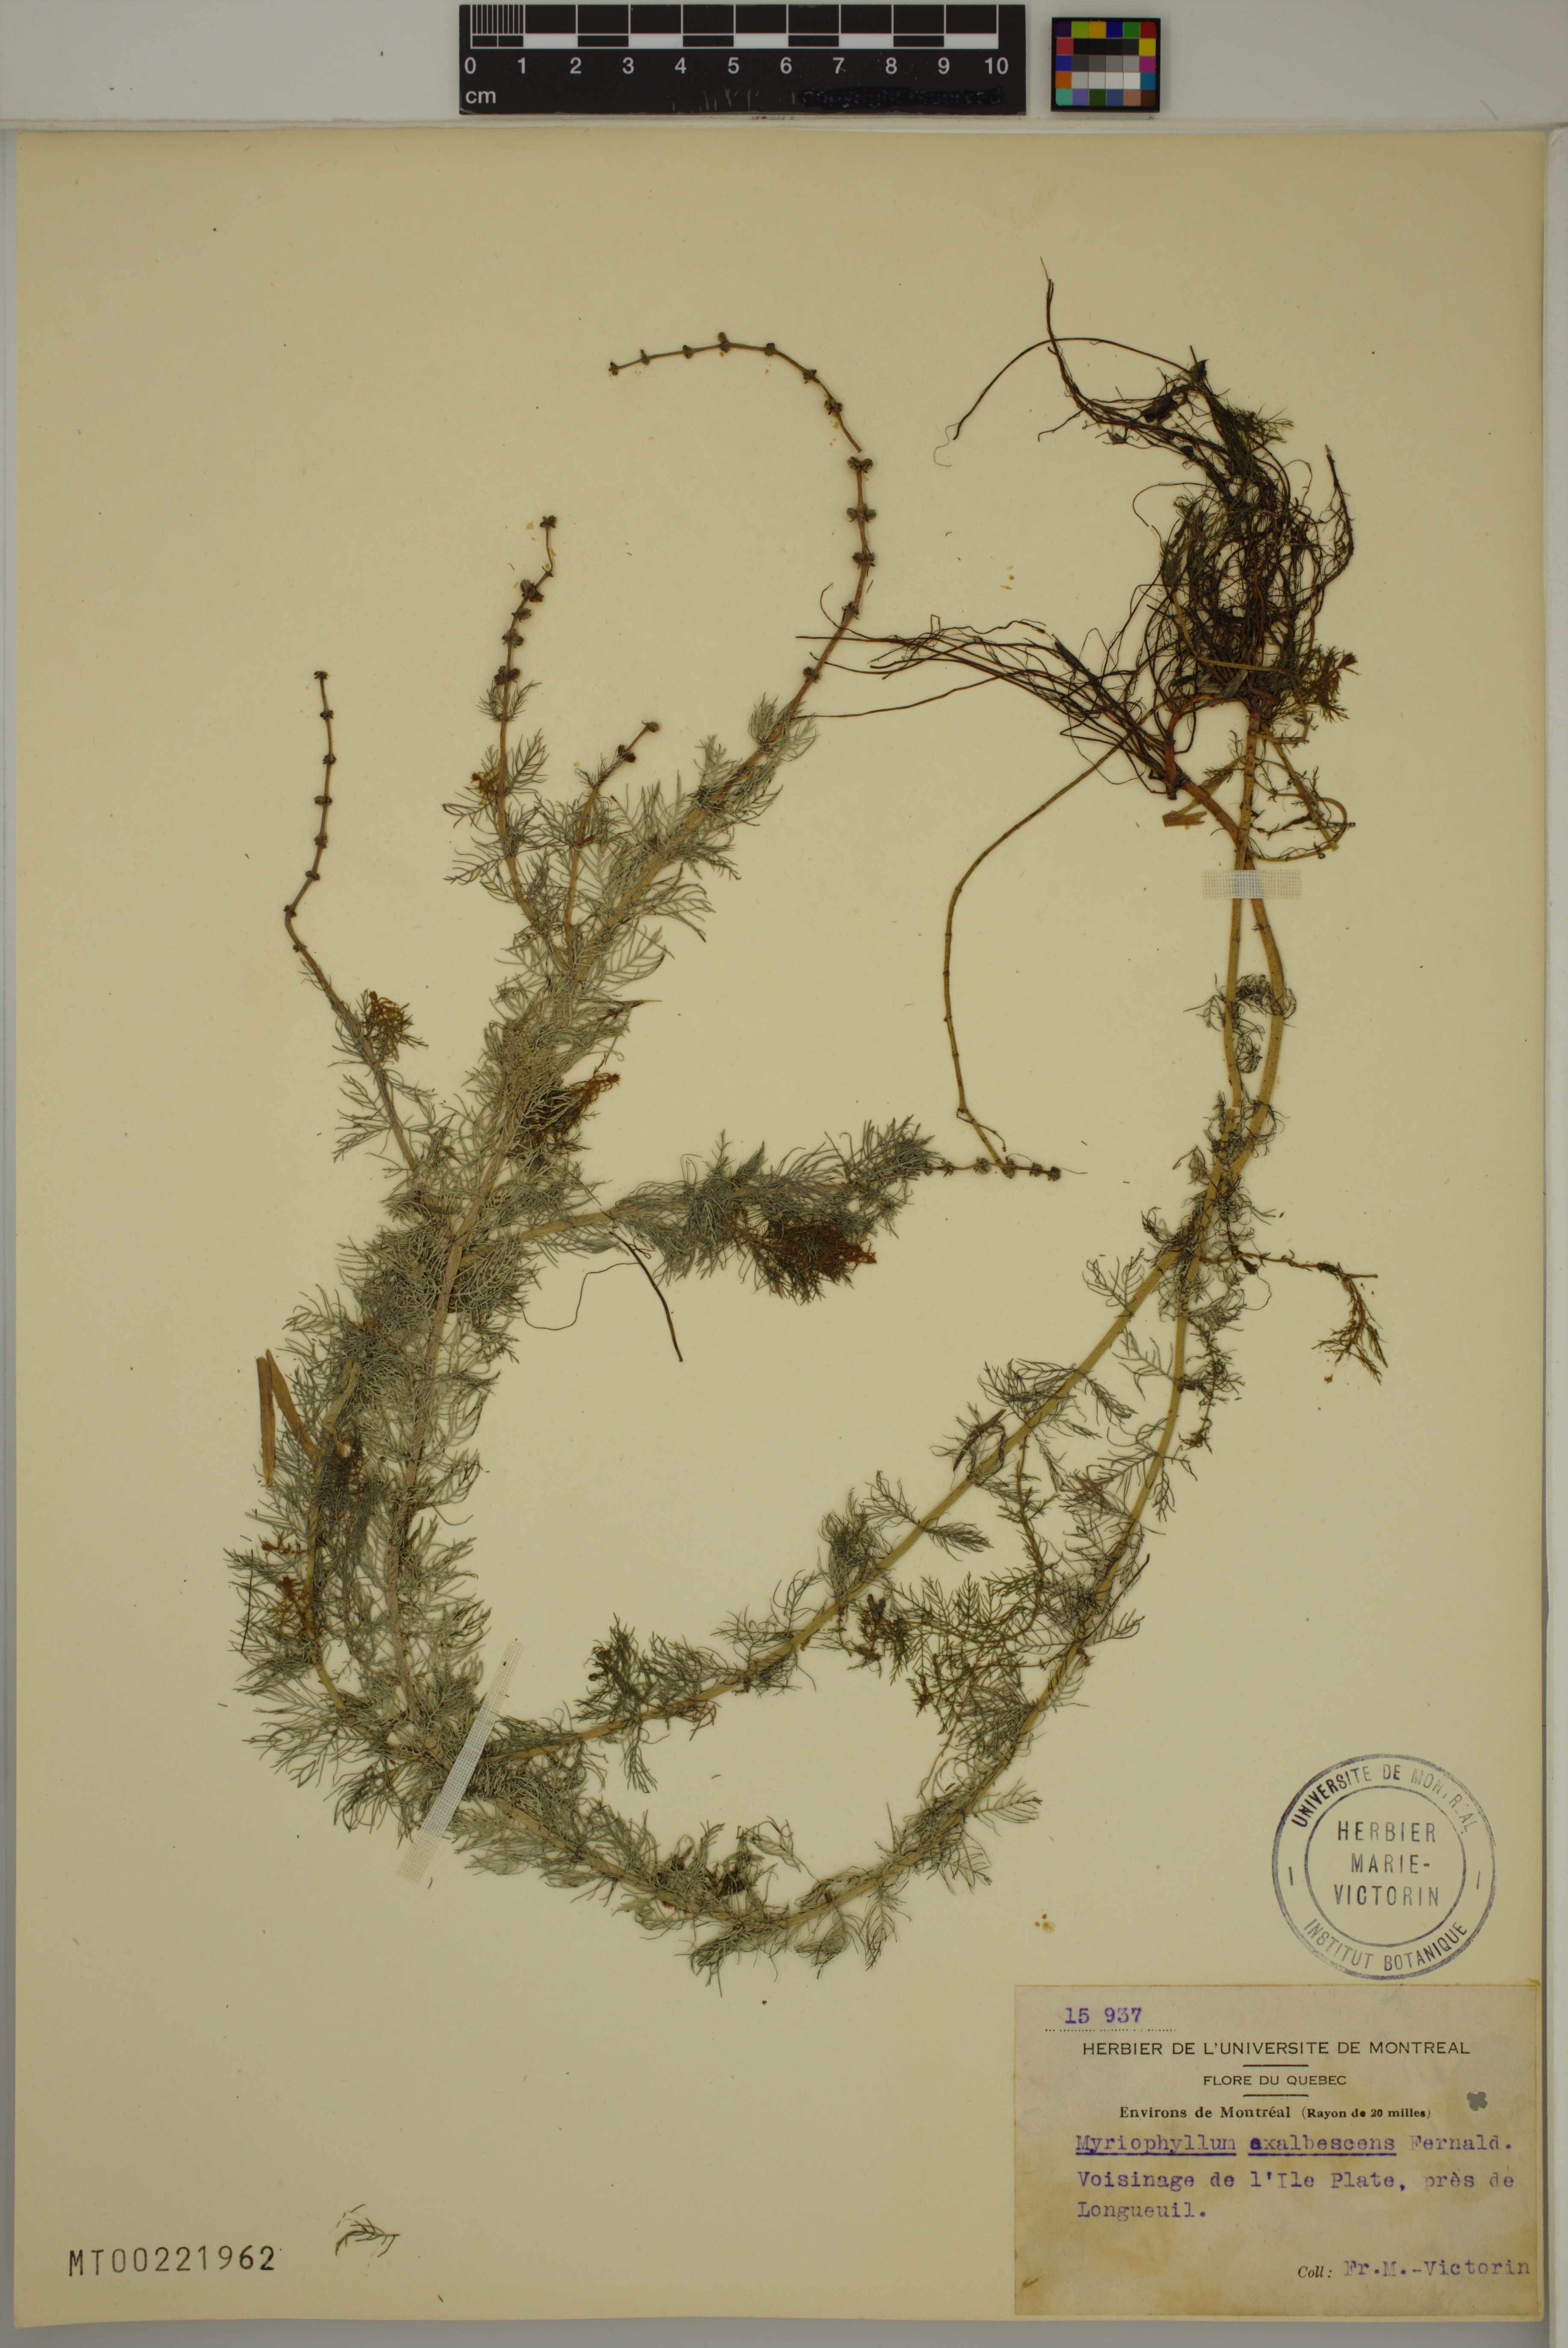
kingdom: Plantae
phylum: Tracheophyta
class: Magnoliopsida
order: Saxifragales
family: Haloragaceae
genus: Myriophyllum
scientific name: Myriophyllum sibiricum
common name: Siberian water-milfoil
